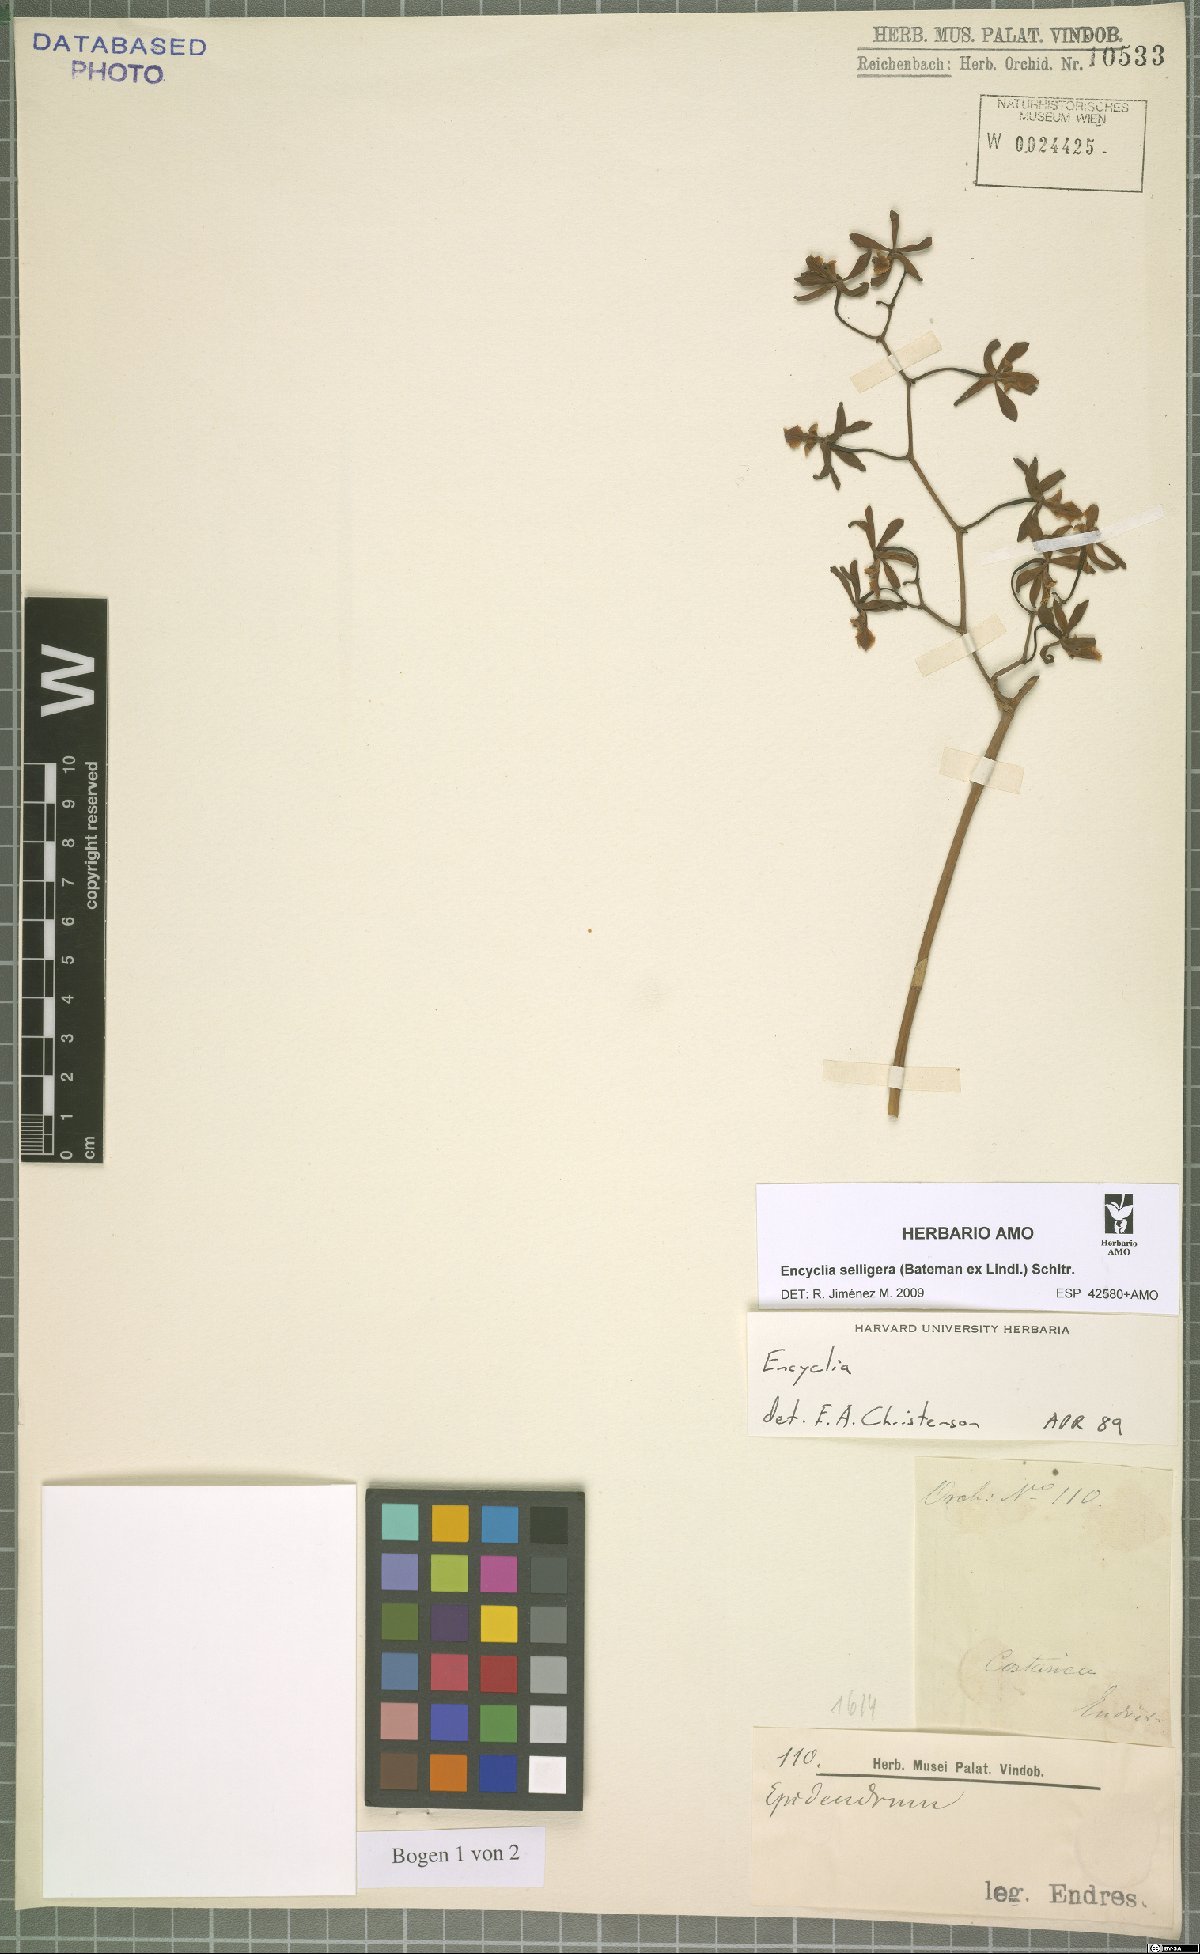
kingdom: Plantae
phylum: Tracheophyta
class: Liliopsida
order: Asparagales
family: Orchidaceae
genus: Encyclia
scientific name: Encyclia selligera
